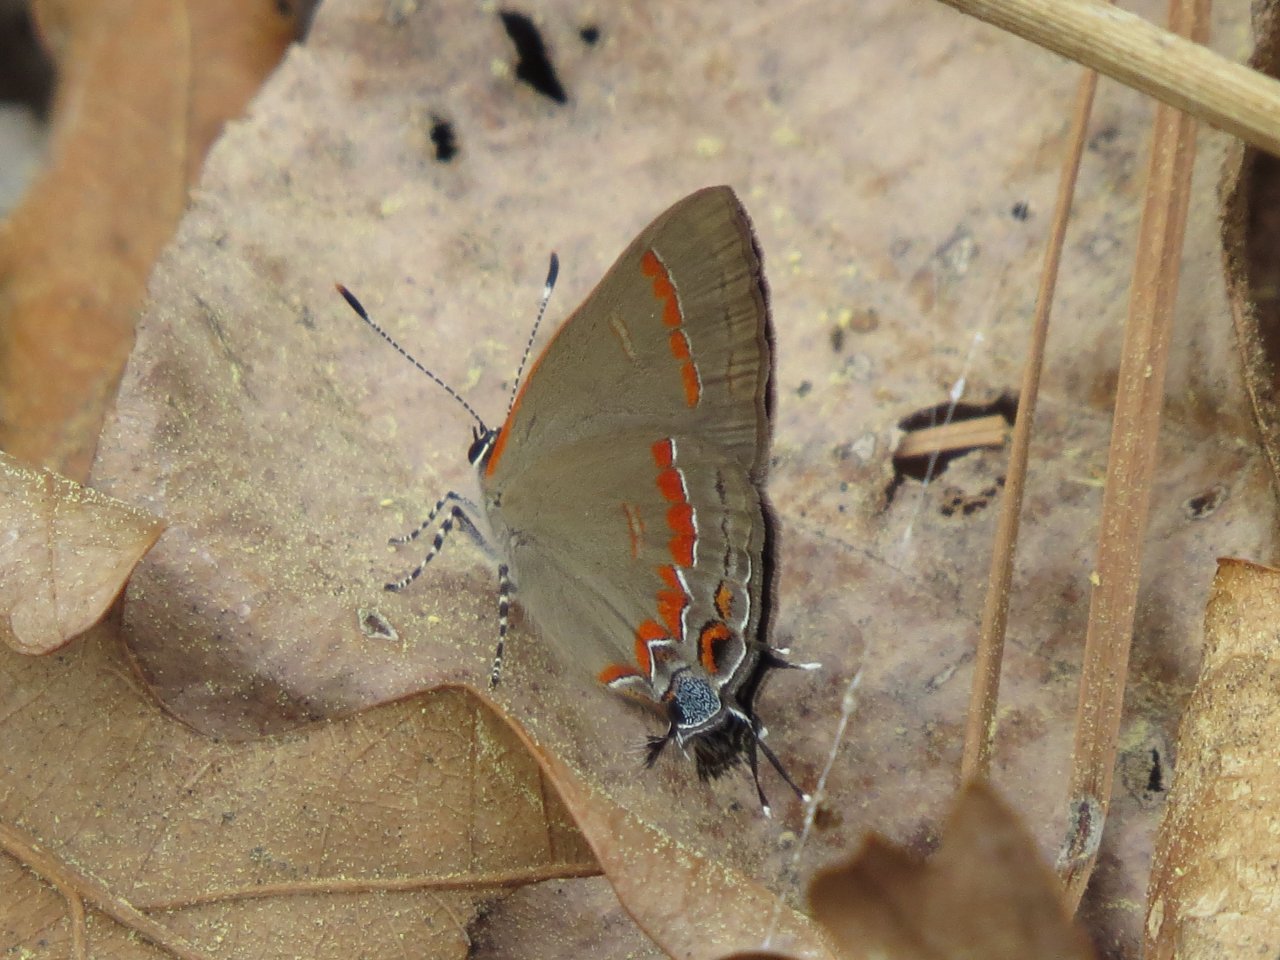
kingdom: Animalia
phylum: Arthropoda
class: Insecta
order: Lepidoptera
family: Lycaenidae
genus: Calycopis
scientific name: Calycopis cecrops
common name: Red-banded Hairstreak
